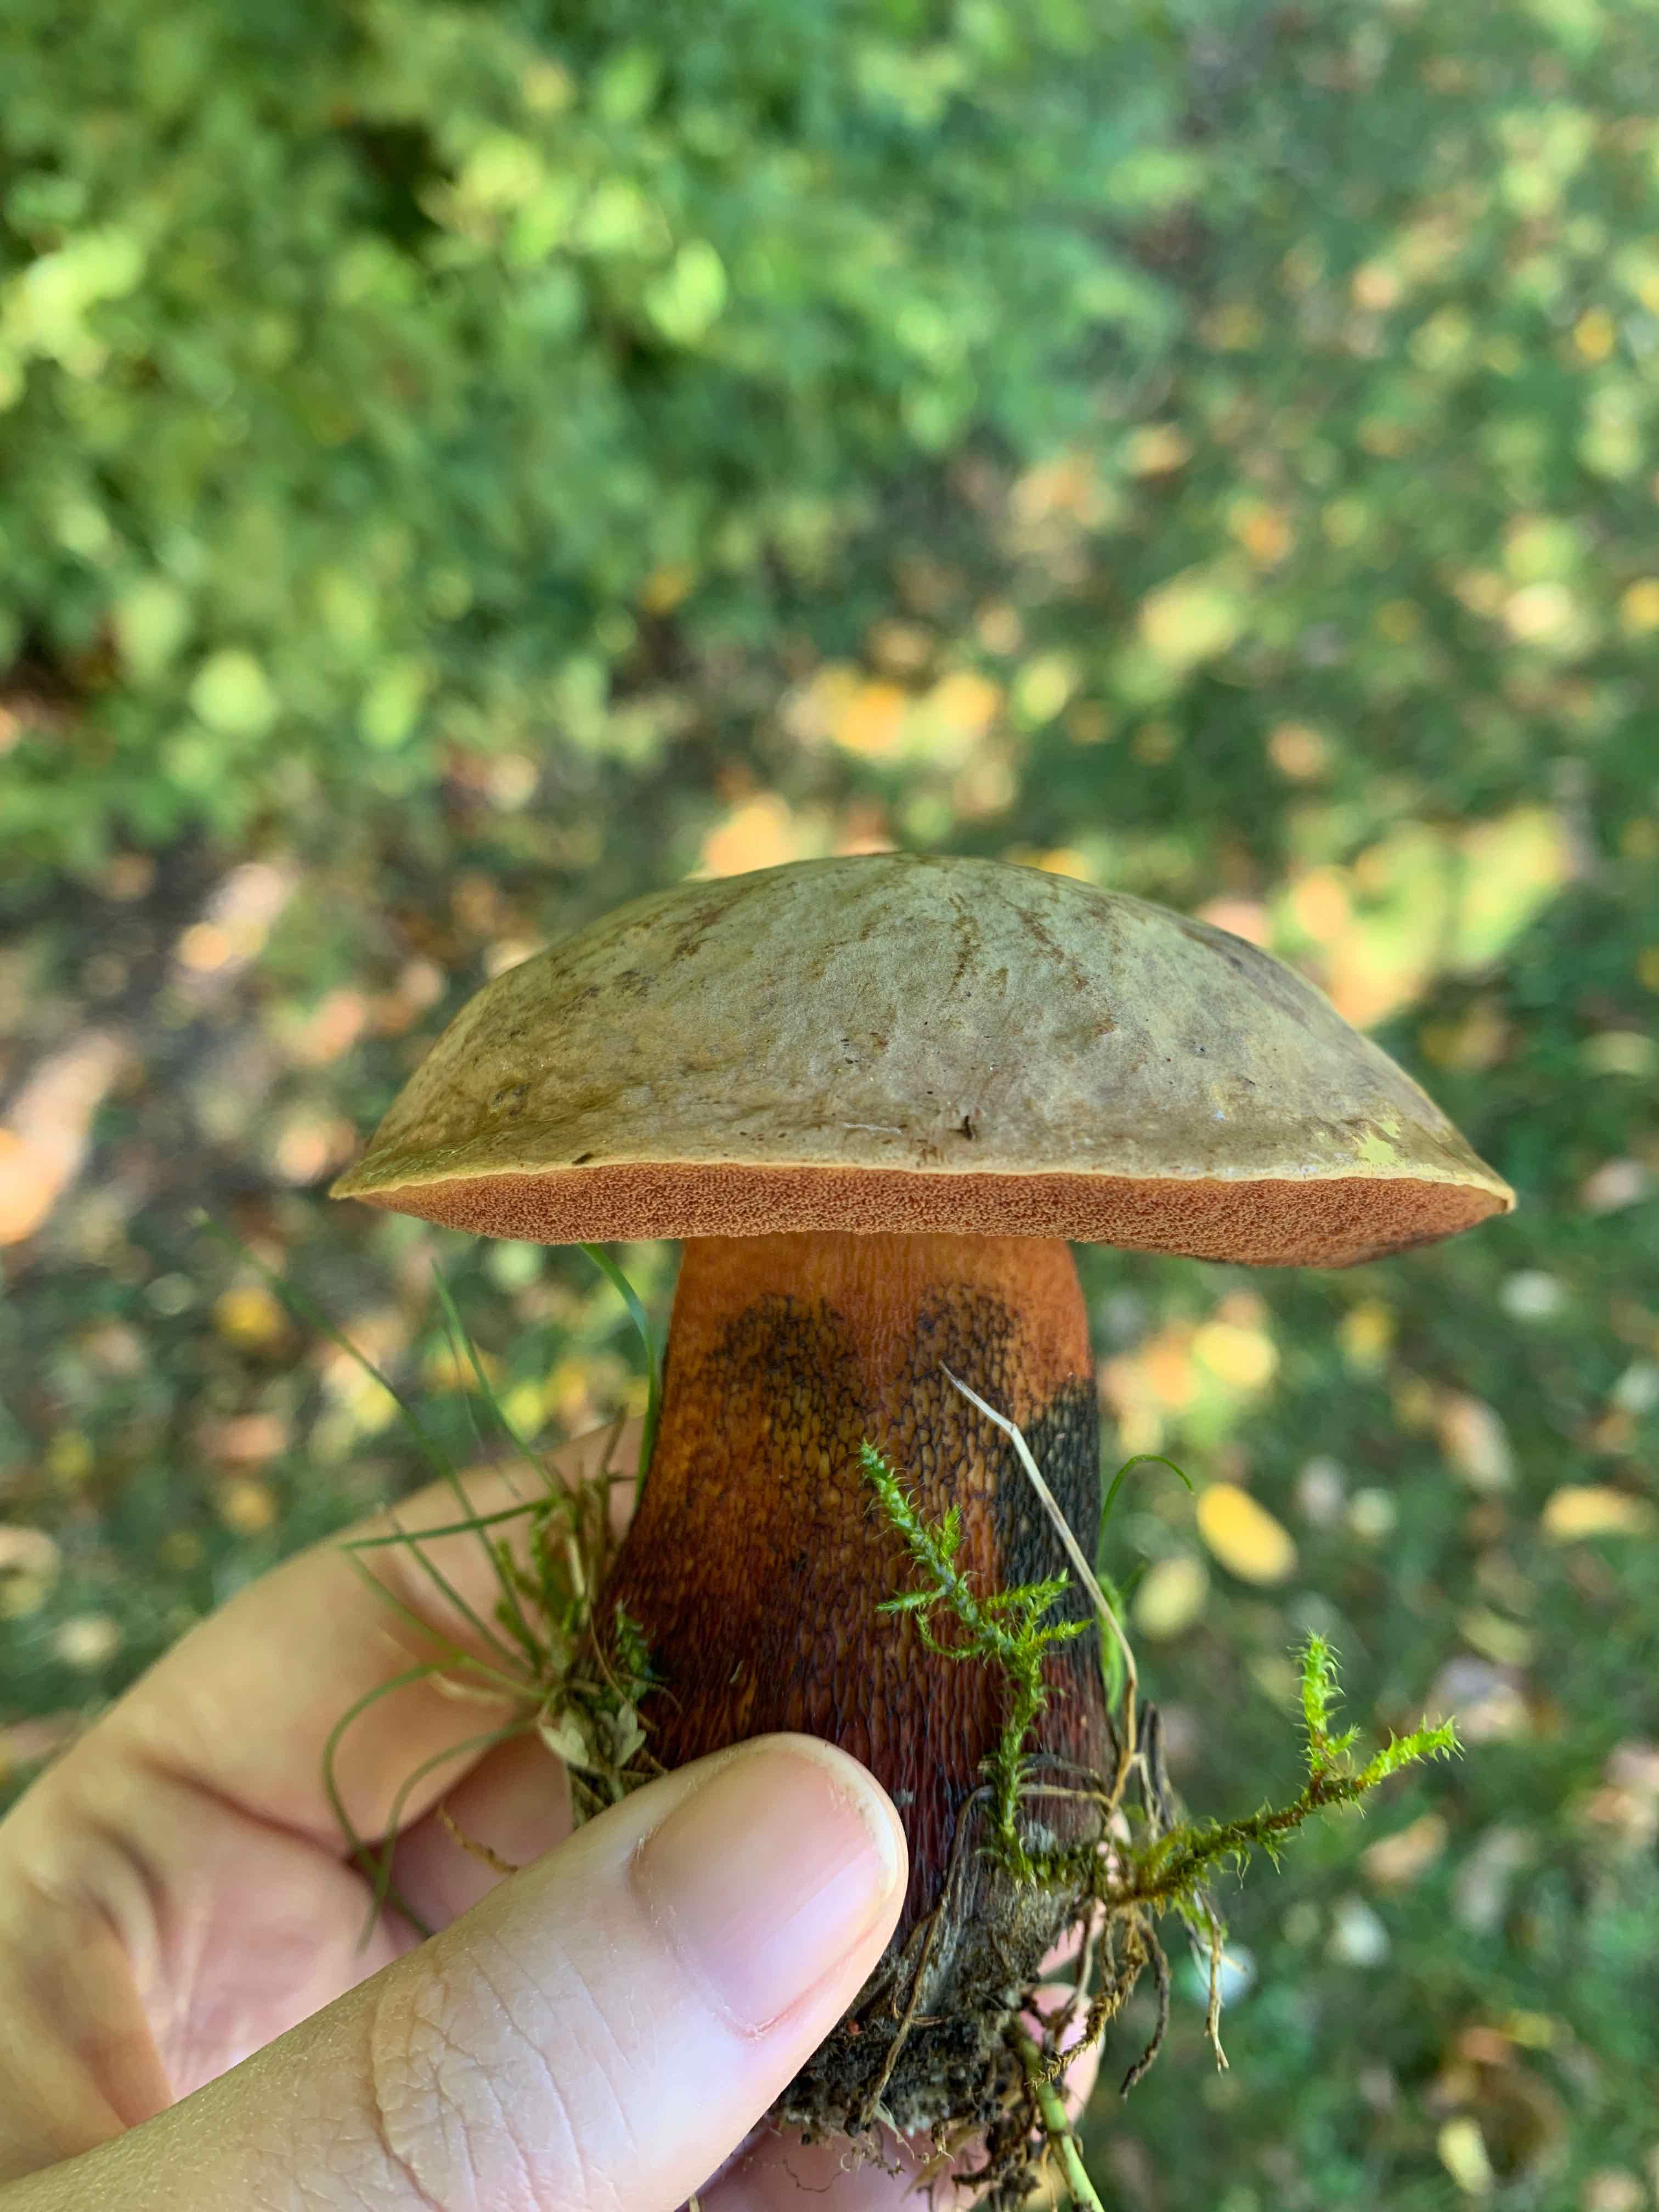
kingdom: Fungi
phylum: Basidiomycota
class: Agaricomycetes
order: Boletales
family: Boletaceae
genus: Suillellus
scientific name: Suillellus luridus
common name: netstokket indigorørhat
